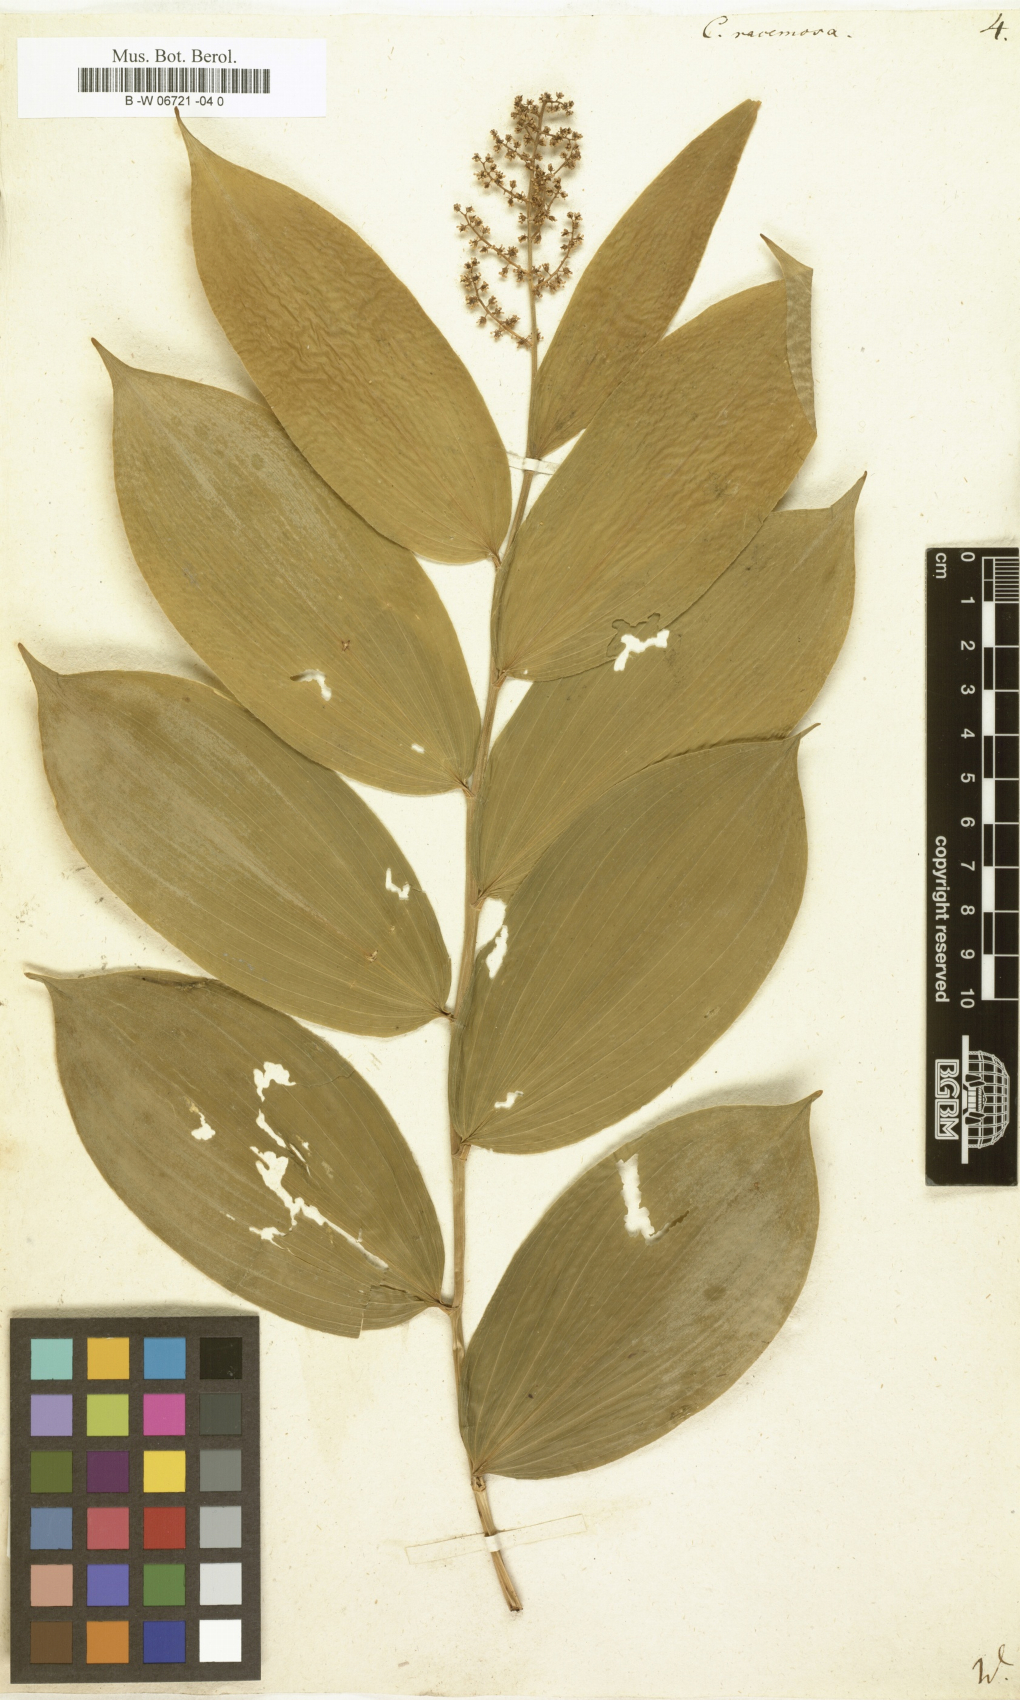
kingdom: Plantae
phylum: Tracheophyta
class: Liliopsida
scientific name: Liliopsida
